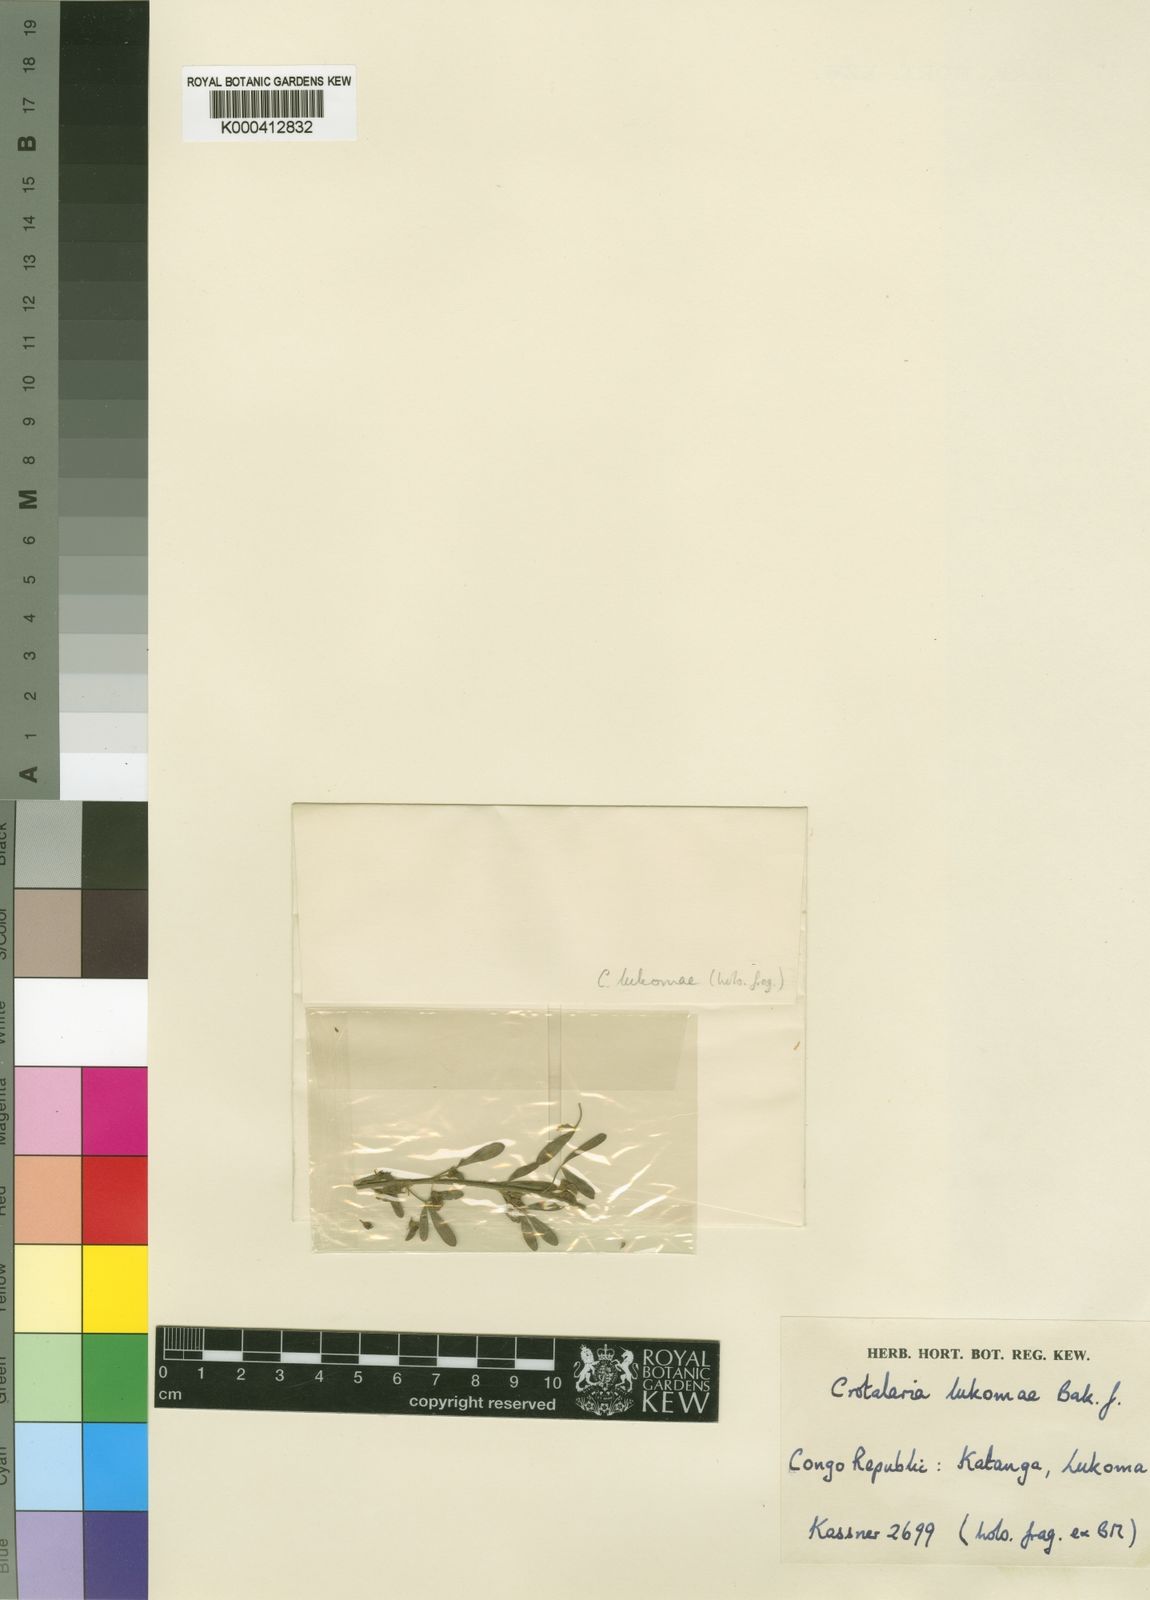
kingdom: Plantae
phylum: Tracheophyta
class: Magnoliopsida
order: Fabales
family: Fabaceae
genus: Crotalaria
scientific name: Crotalaria lukomae
